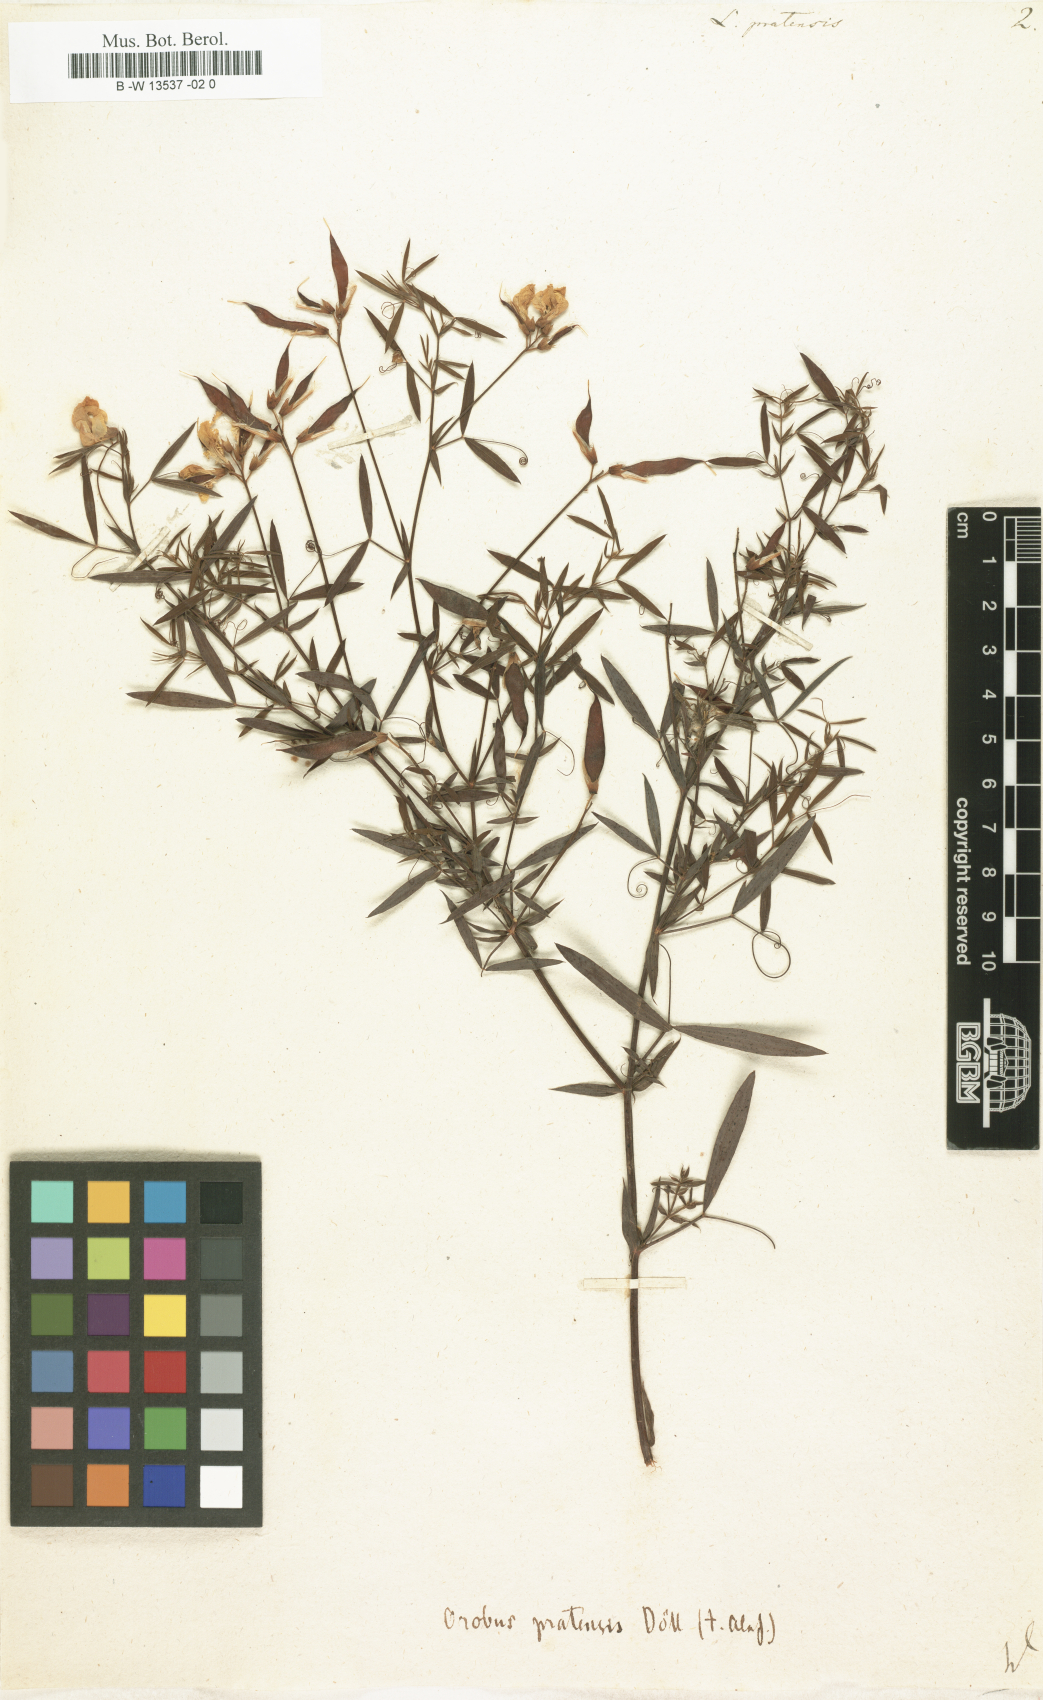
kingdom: Plantae
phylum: Tracheophyta
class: Magnoliopsida
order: Fabales
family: Fabaceae
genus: Lathyrus
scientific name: Lathyrus pratensis
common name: Meadow vetchling
